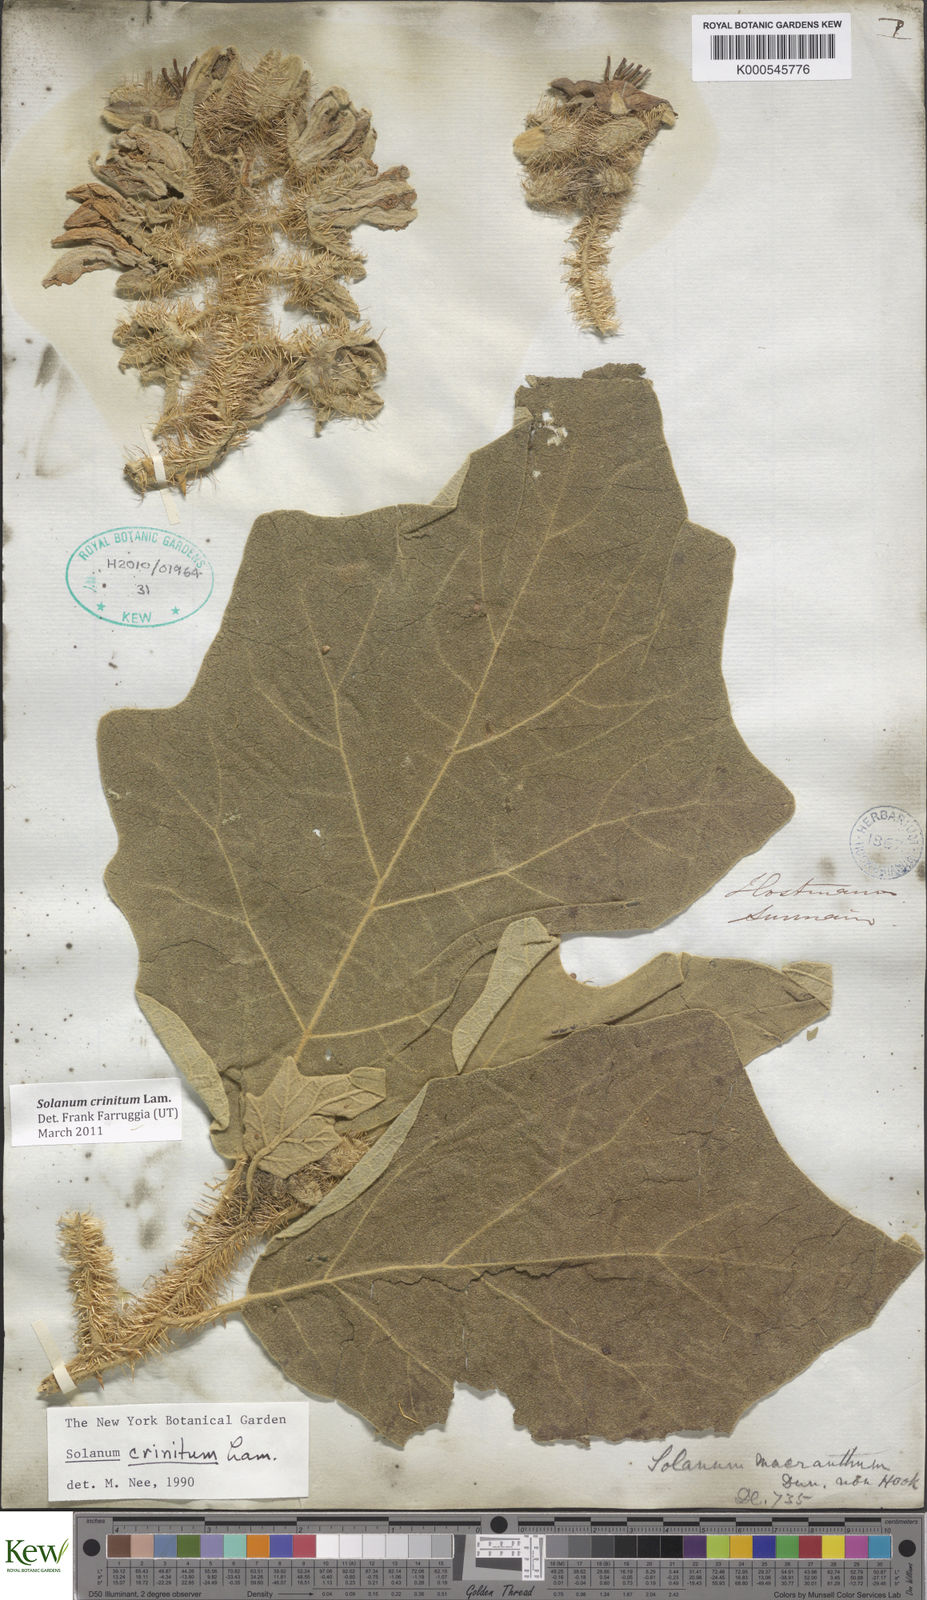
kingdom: Plantae
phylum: Tracheophyta
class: Magnoliopsida
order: Solanales
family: Solanaceae
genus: Solanum
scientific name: Solanum crinitum
